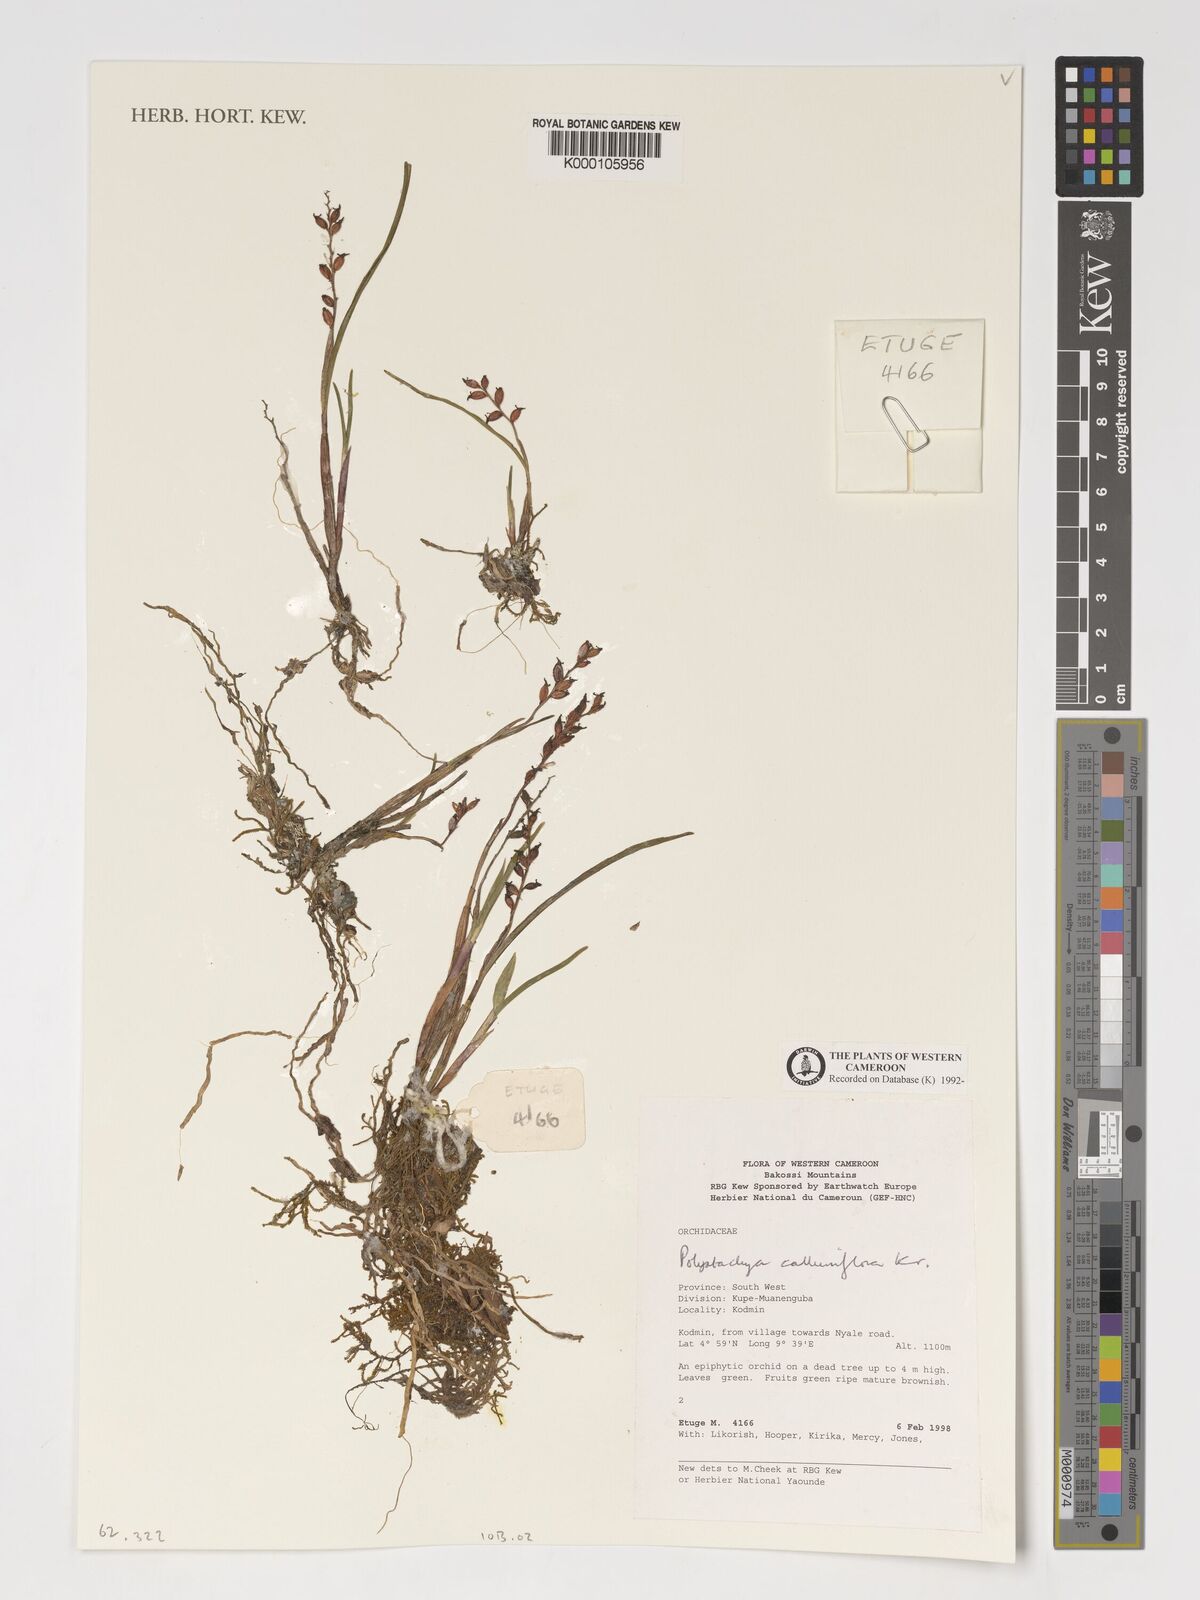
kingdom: Plantae
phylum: Tracheophyta
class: Liliopsida
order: Asparagales
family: Orchidaceae
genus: Polystachya
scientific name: Polystachya calluniflora
